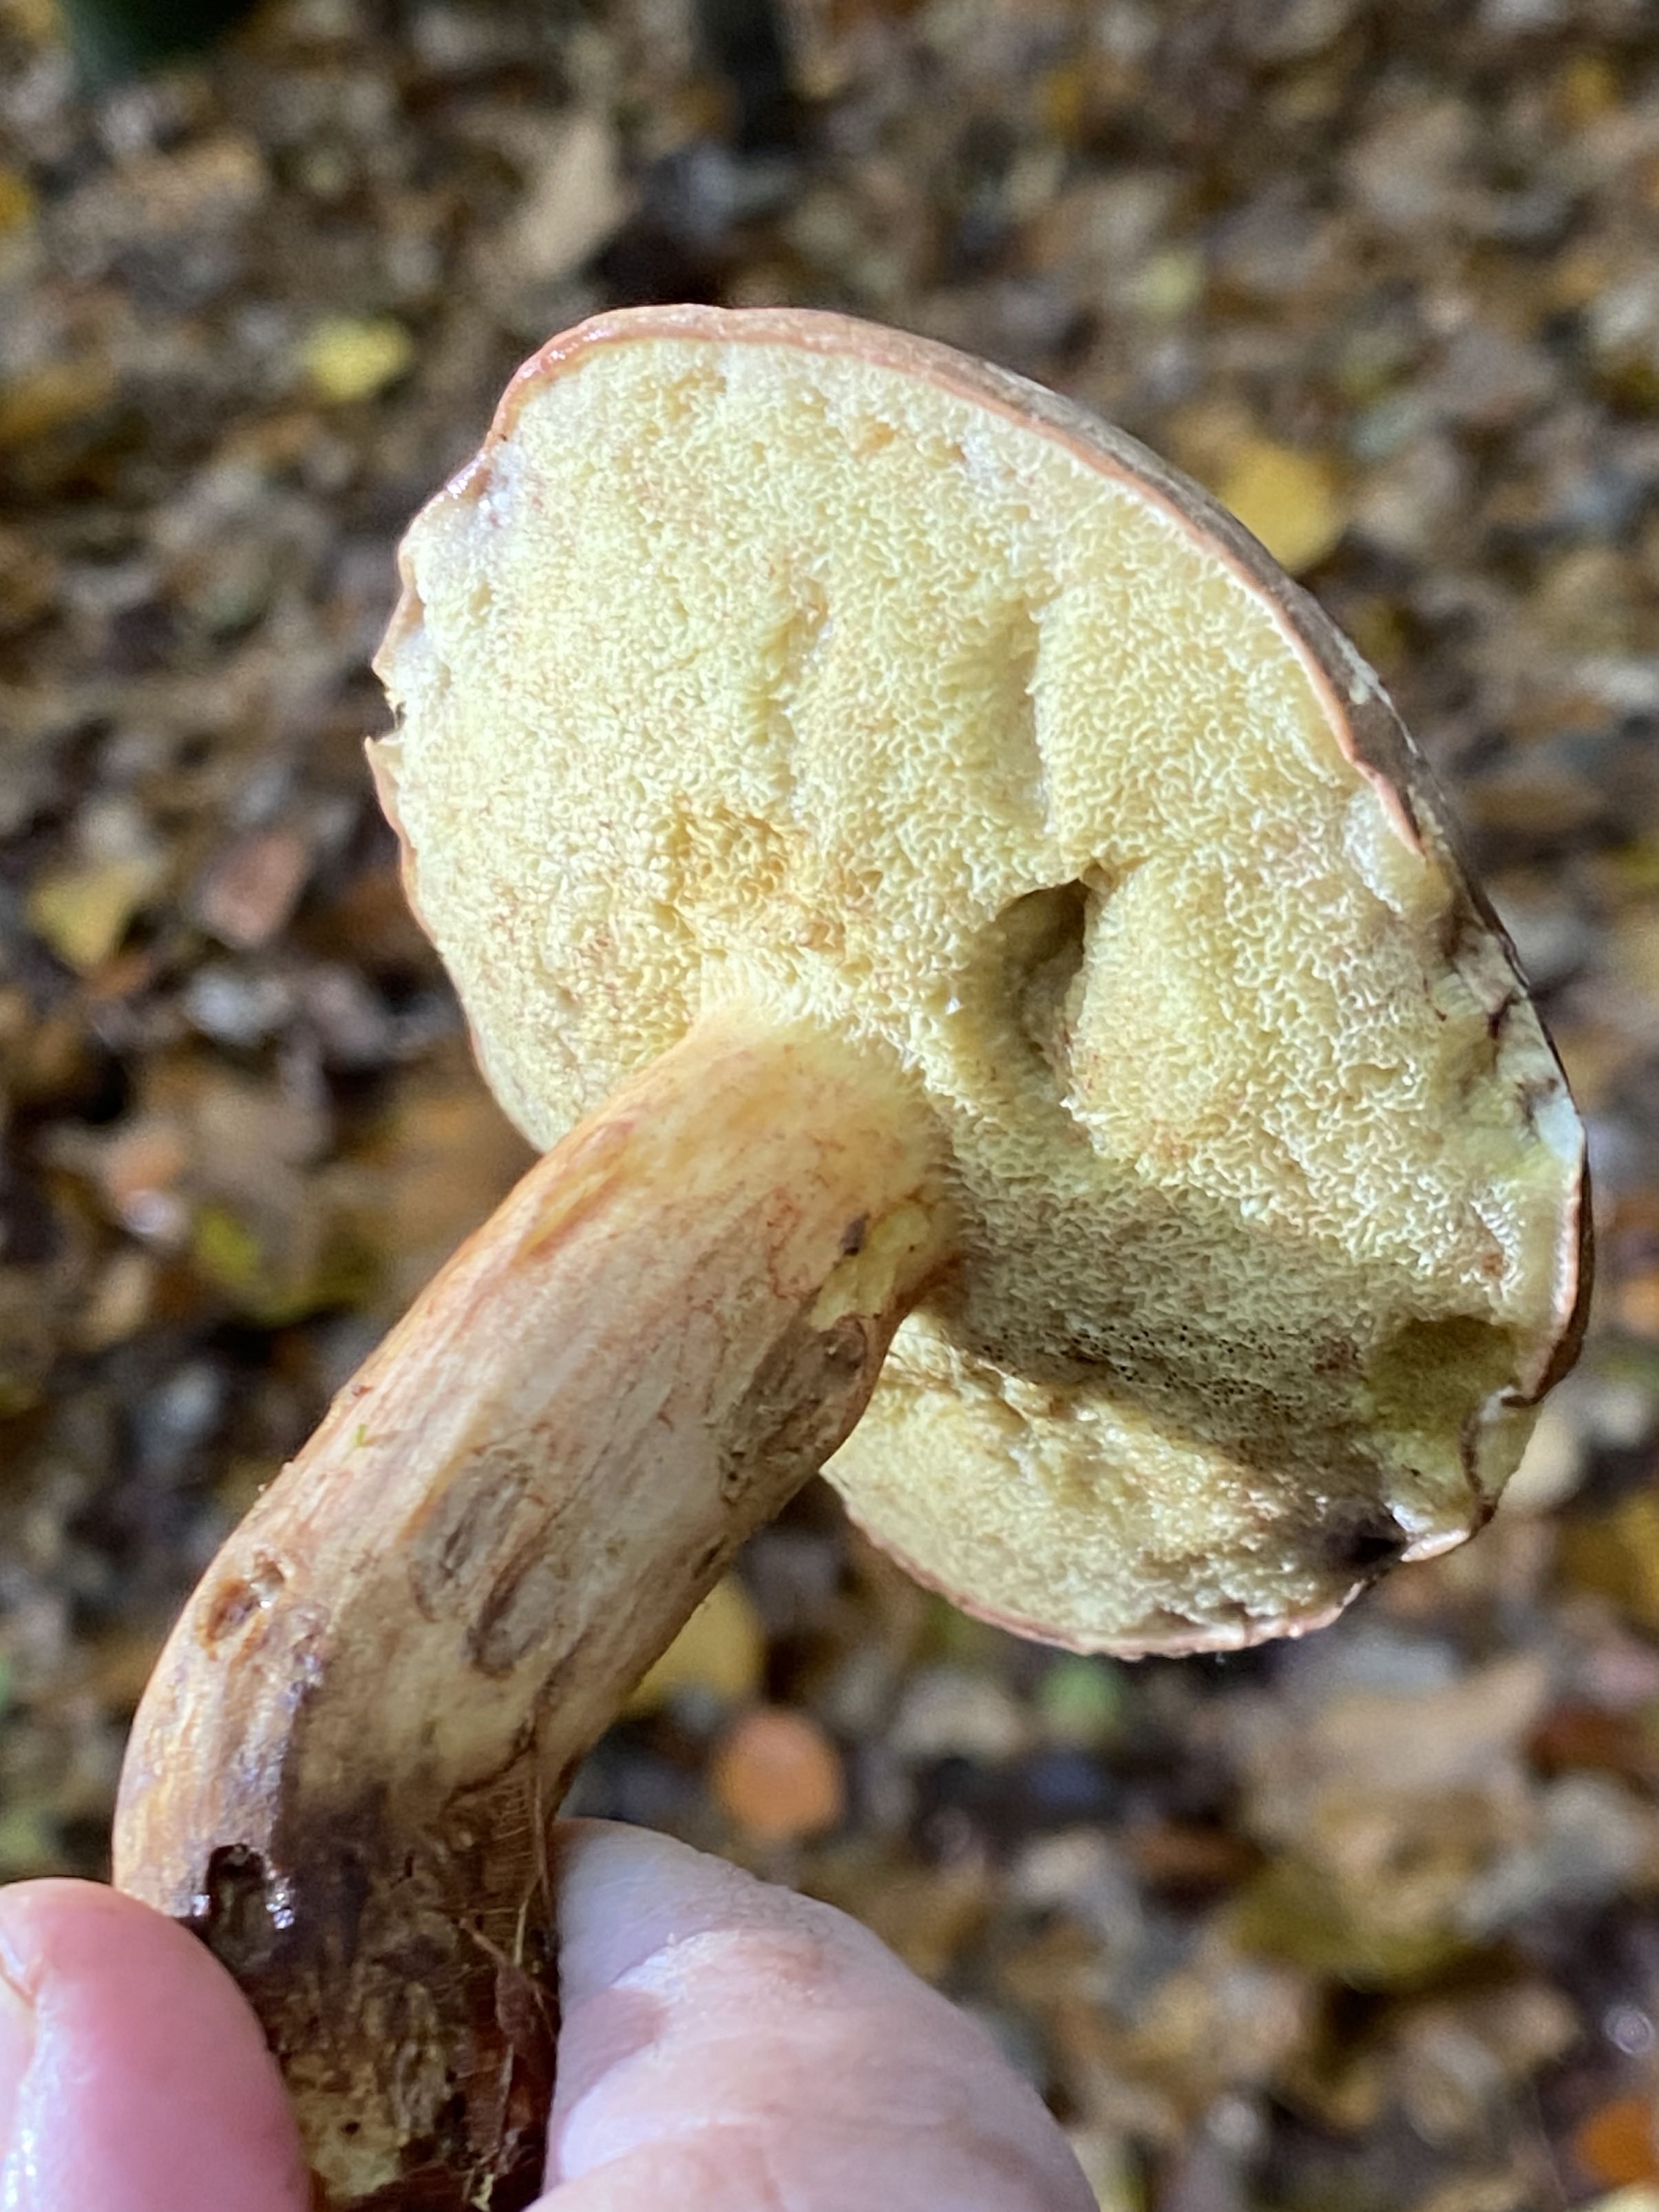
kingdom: Fungi
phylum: Basidiomycota
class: Agaricomycetes
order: Boletales
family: Boletaceae
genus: Xerocomellus
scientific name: Xerocomellus pruinatus
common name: dugget rørhat
